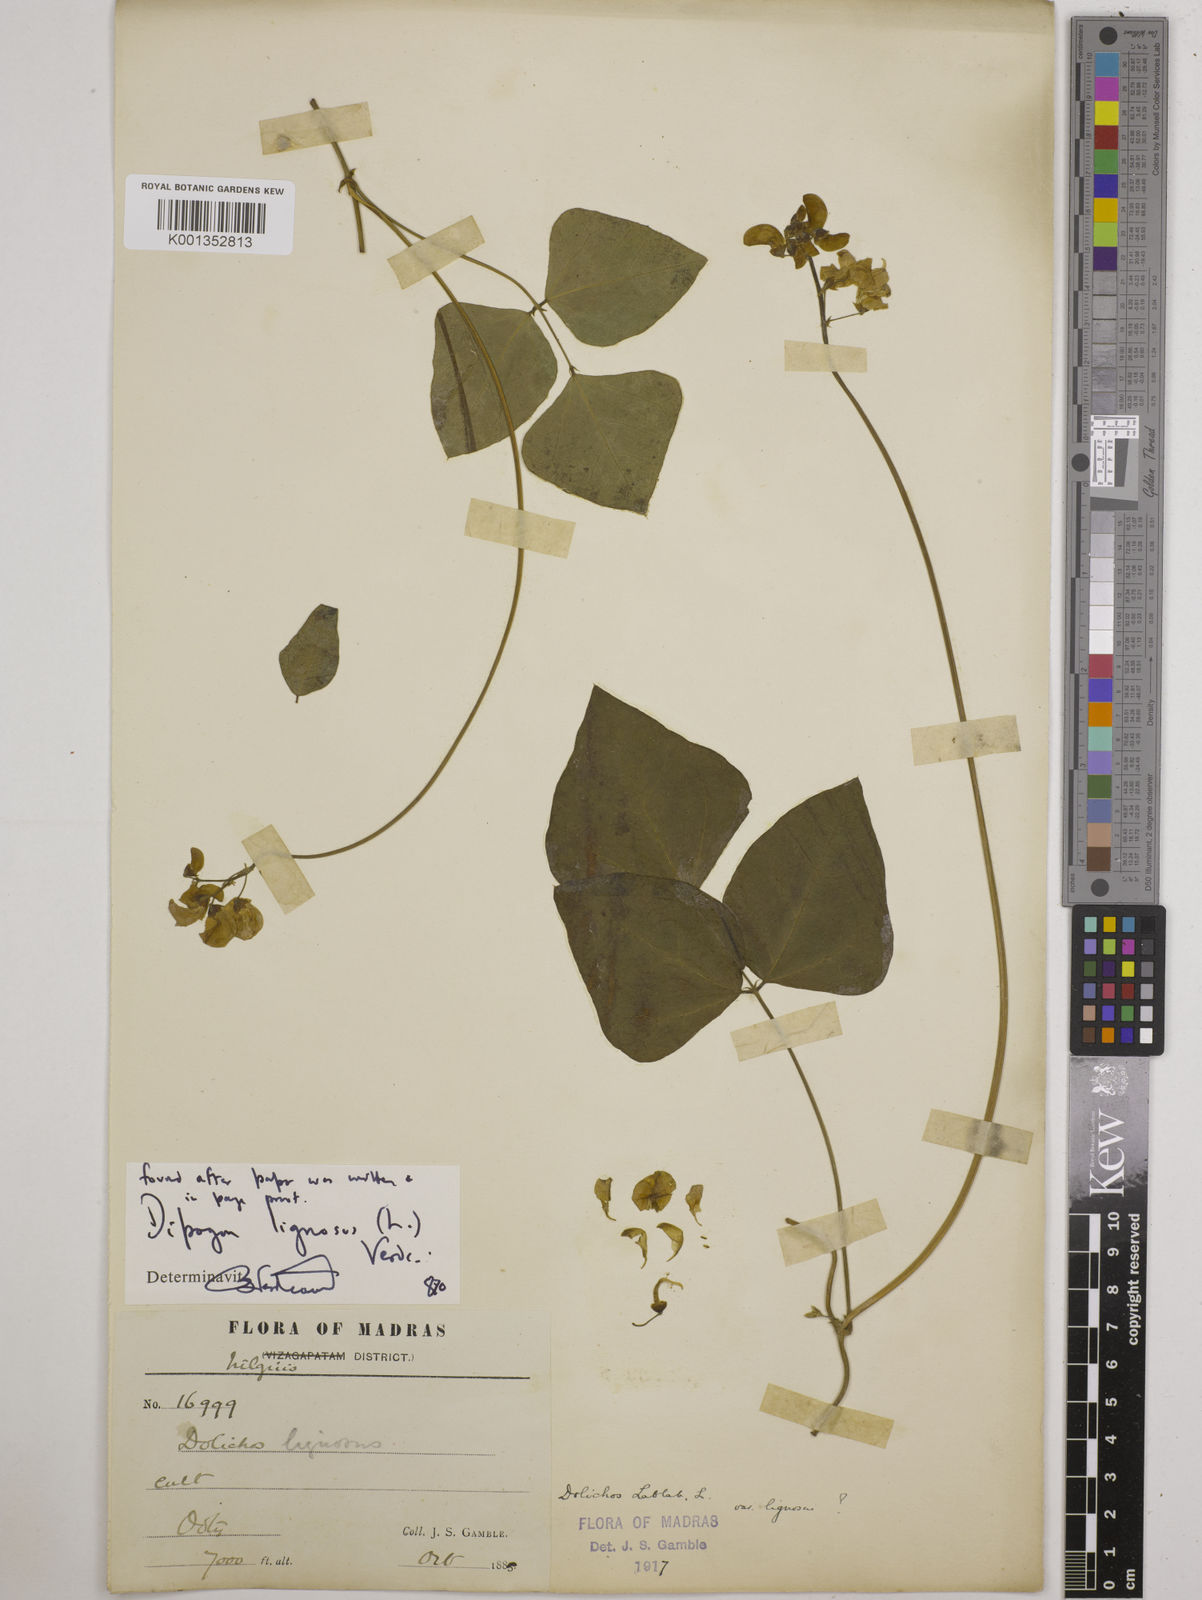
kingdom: Plantae
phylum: Tracheophyta
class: Magnoliopsida
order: Fabales
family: Fabaceae
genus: Dipogon
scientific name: Dipogon lignosus
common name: Okie bean
